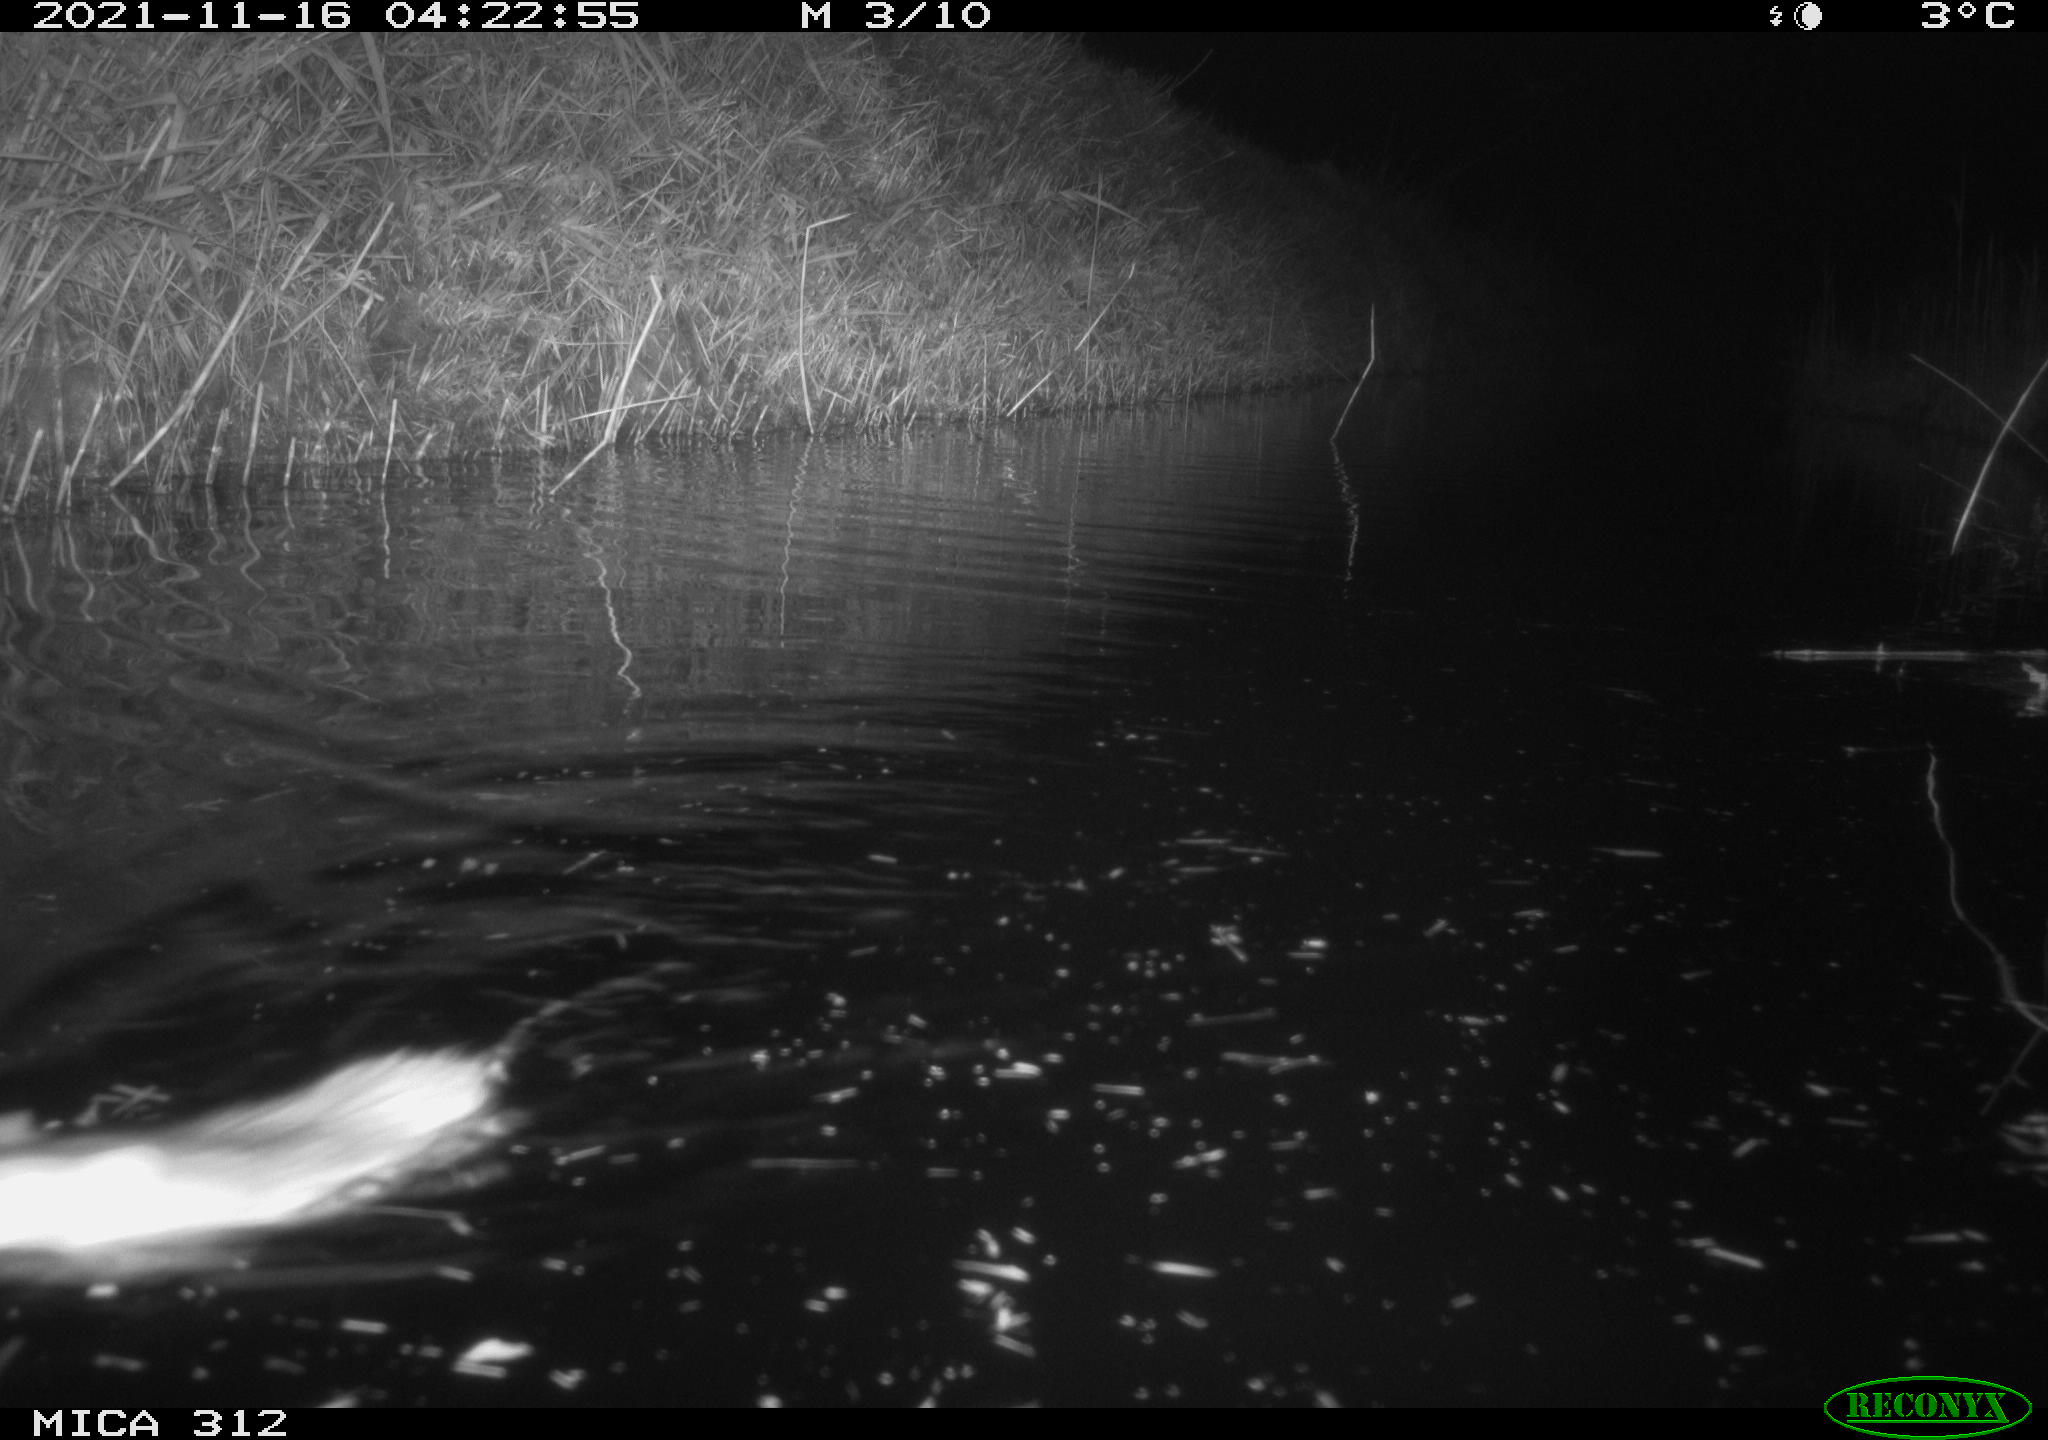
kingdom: Animalia
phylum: Chordata
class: Mammalia
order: Rodentia
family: Muridae
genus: Rattus
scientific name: Rattus norvegicus
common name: Brown rat
